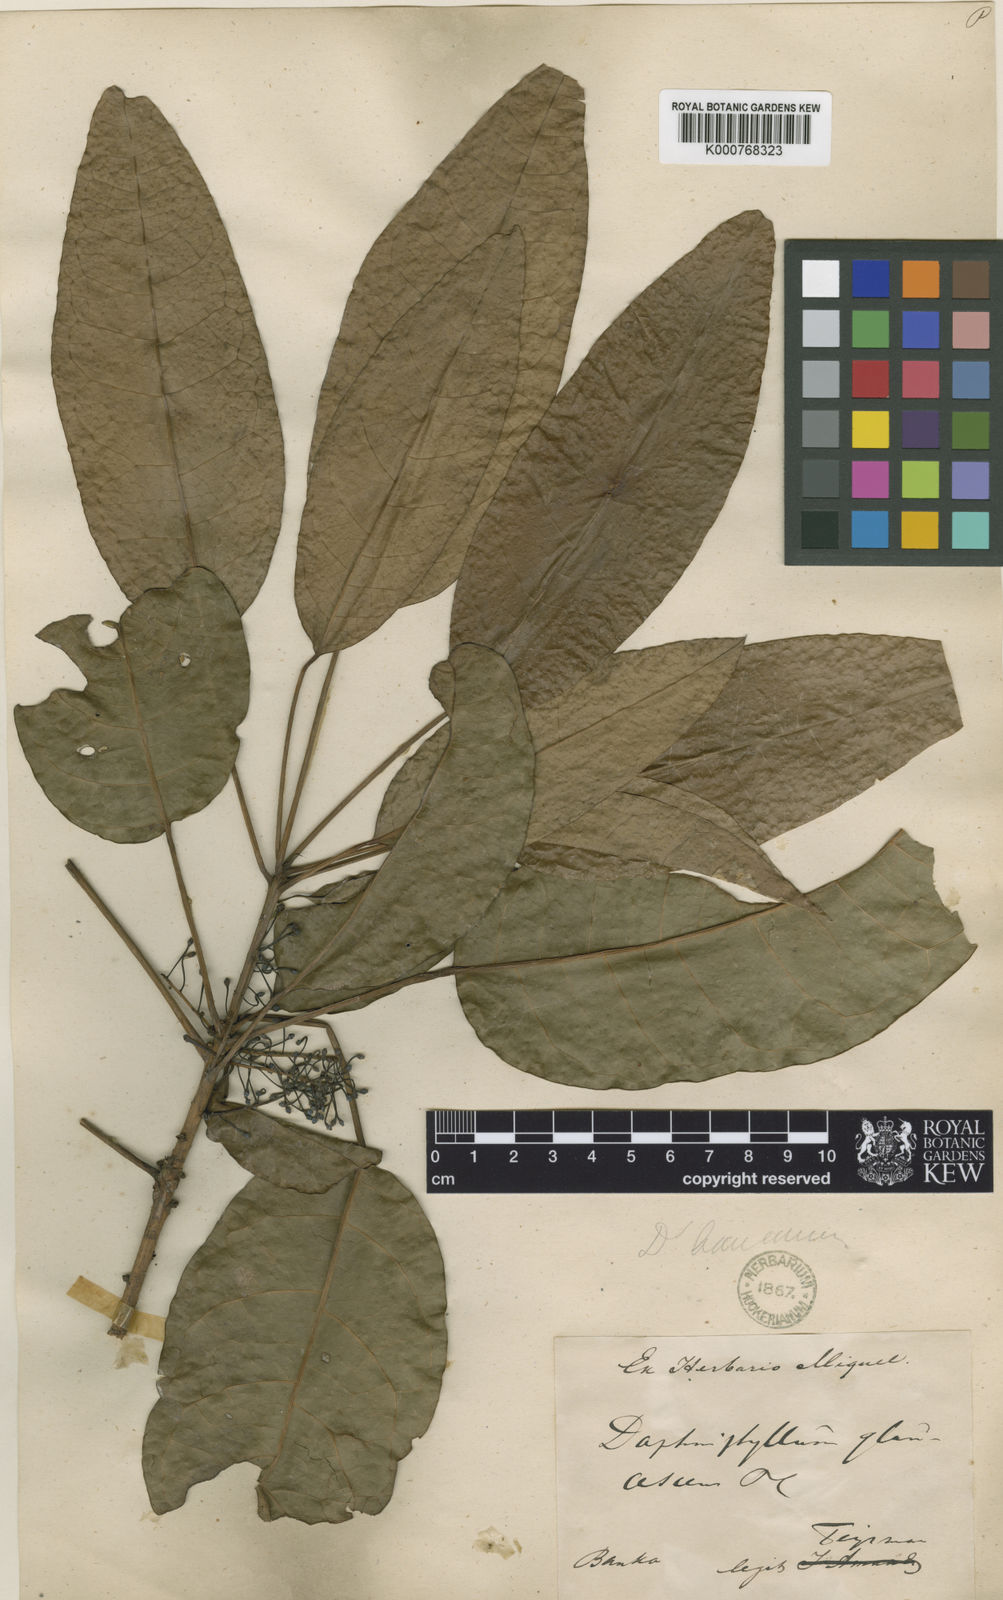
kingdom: Plantae
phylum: Tracheophyta
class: Magnoliopsida
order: Saxifragales
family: Daphniphyllaceae
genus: Daphniphyllum
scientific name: Daphniphyllum laurinum
